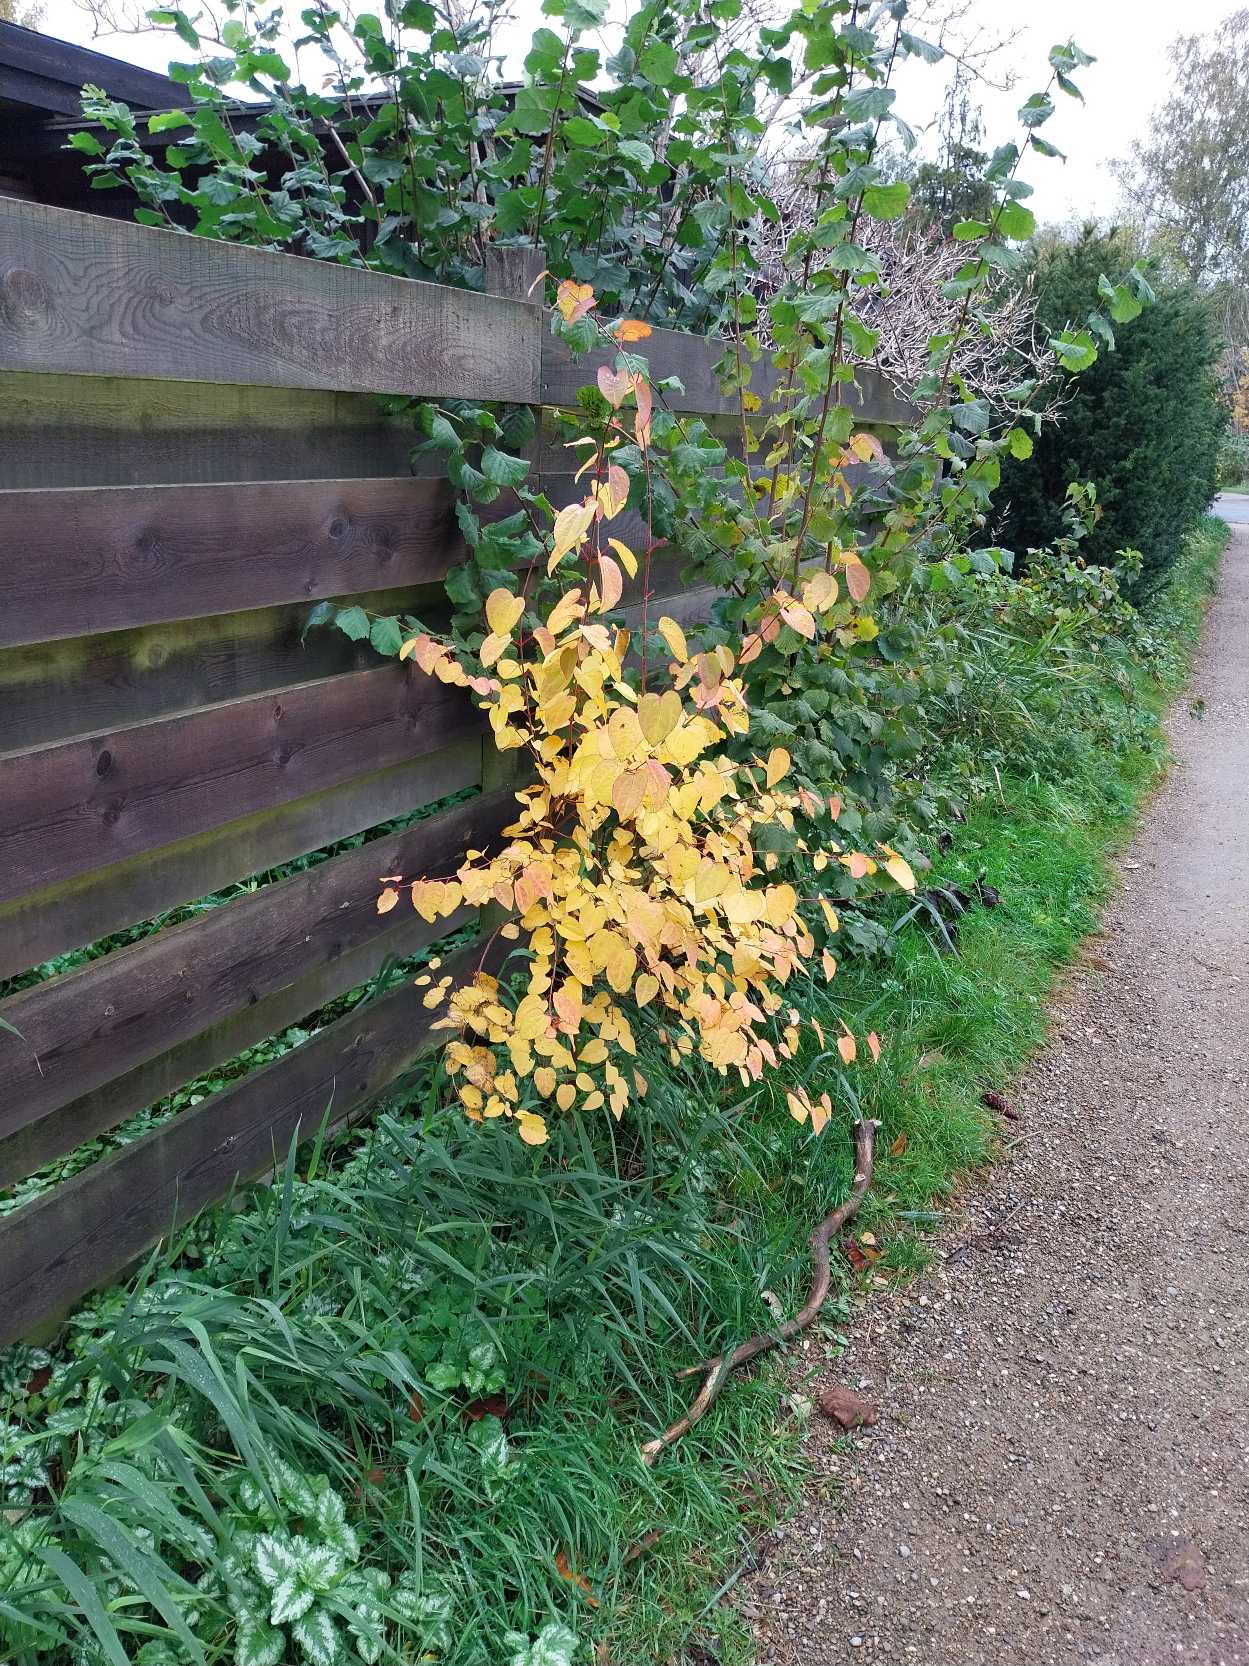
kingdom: Plantae
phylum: Tracheophyta
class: Magnoliopsida
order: Saxifragales
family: Cercidiphyllaceae
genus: Cercidiphyllum
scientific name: Cercidiphyllum japonicum
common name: Hjertetræ
